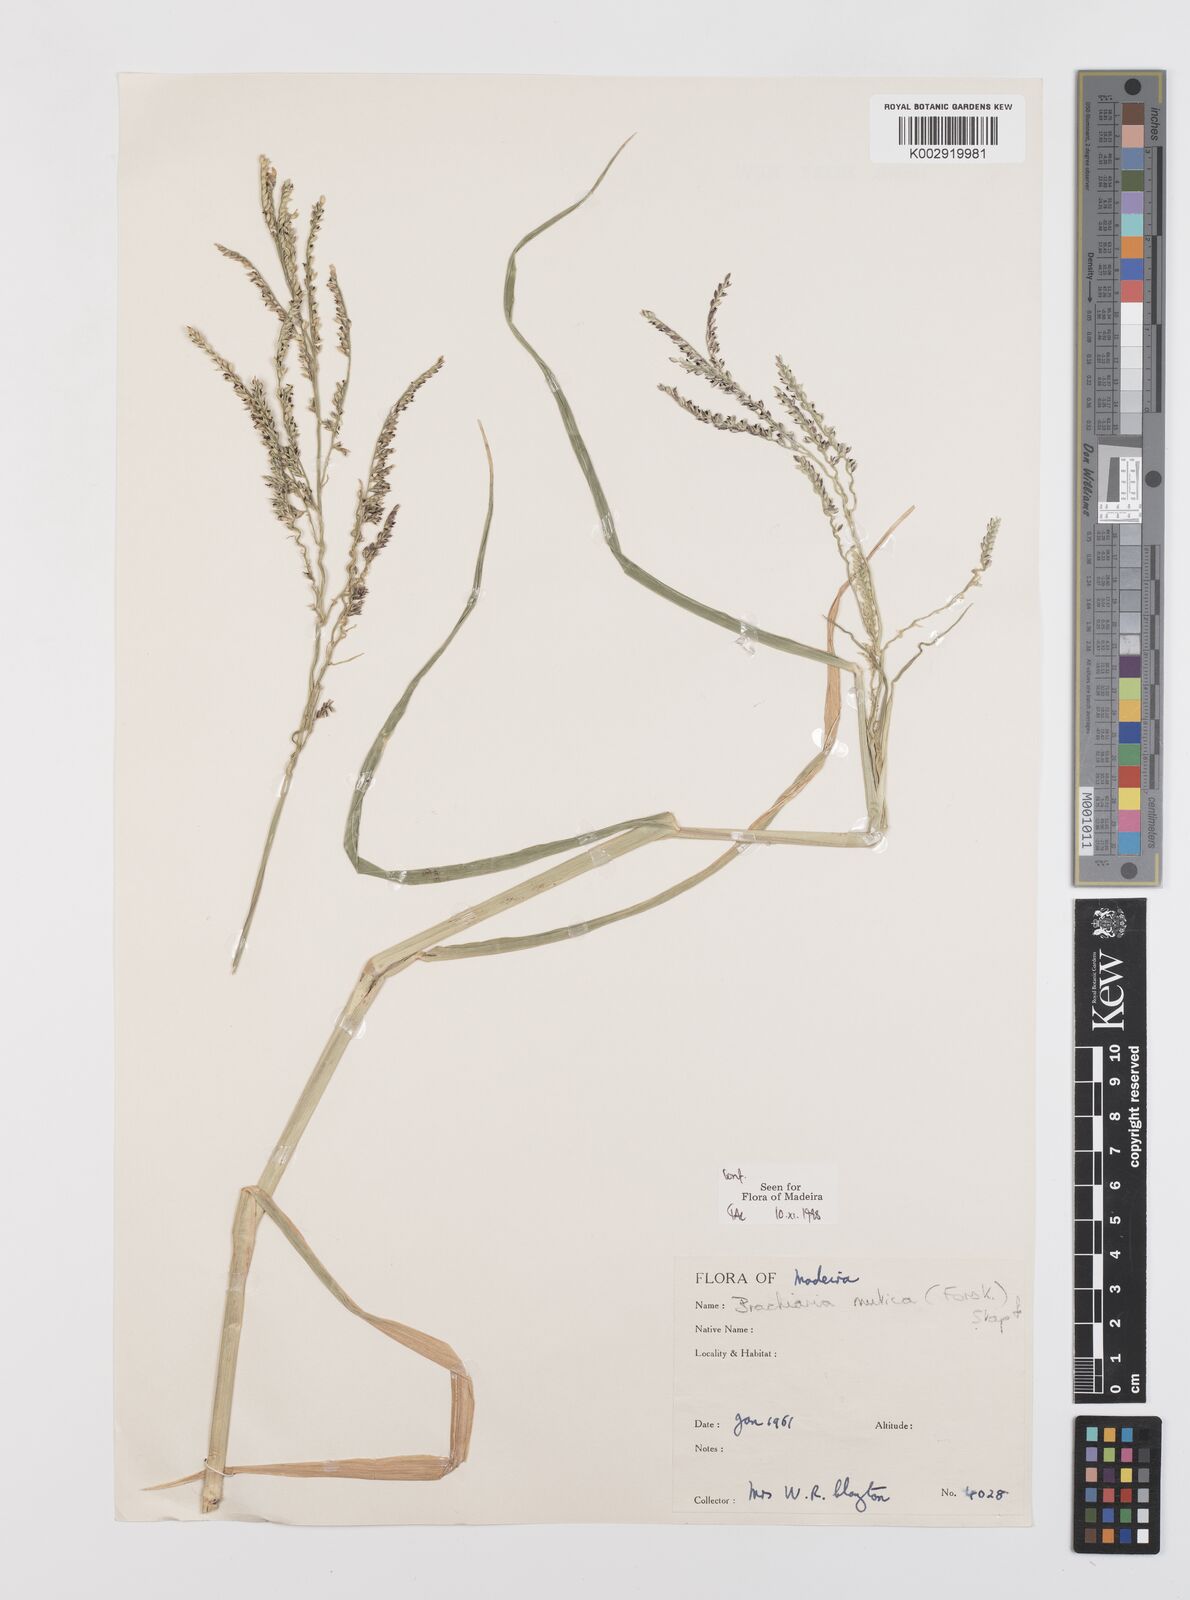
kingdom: Plantae
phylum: Tracheophyta
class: Liliopsida
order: Poales
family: Poaceae
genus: Urochloa
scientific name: Urochloa mutica
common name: Para grass
